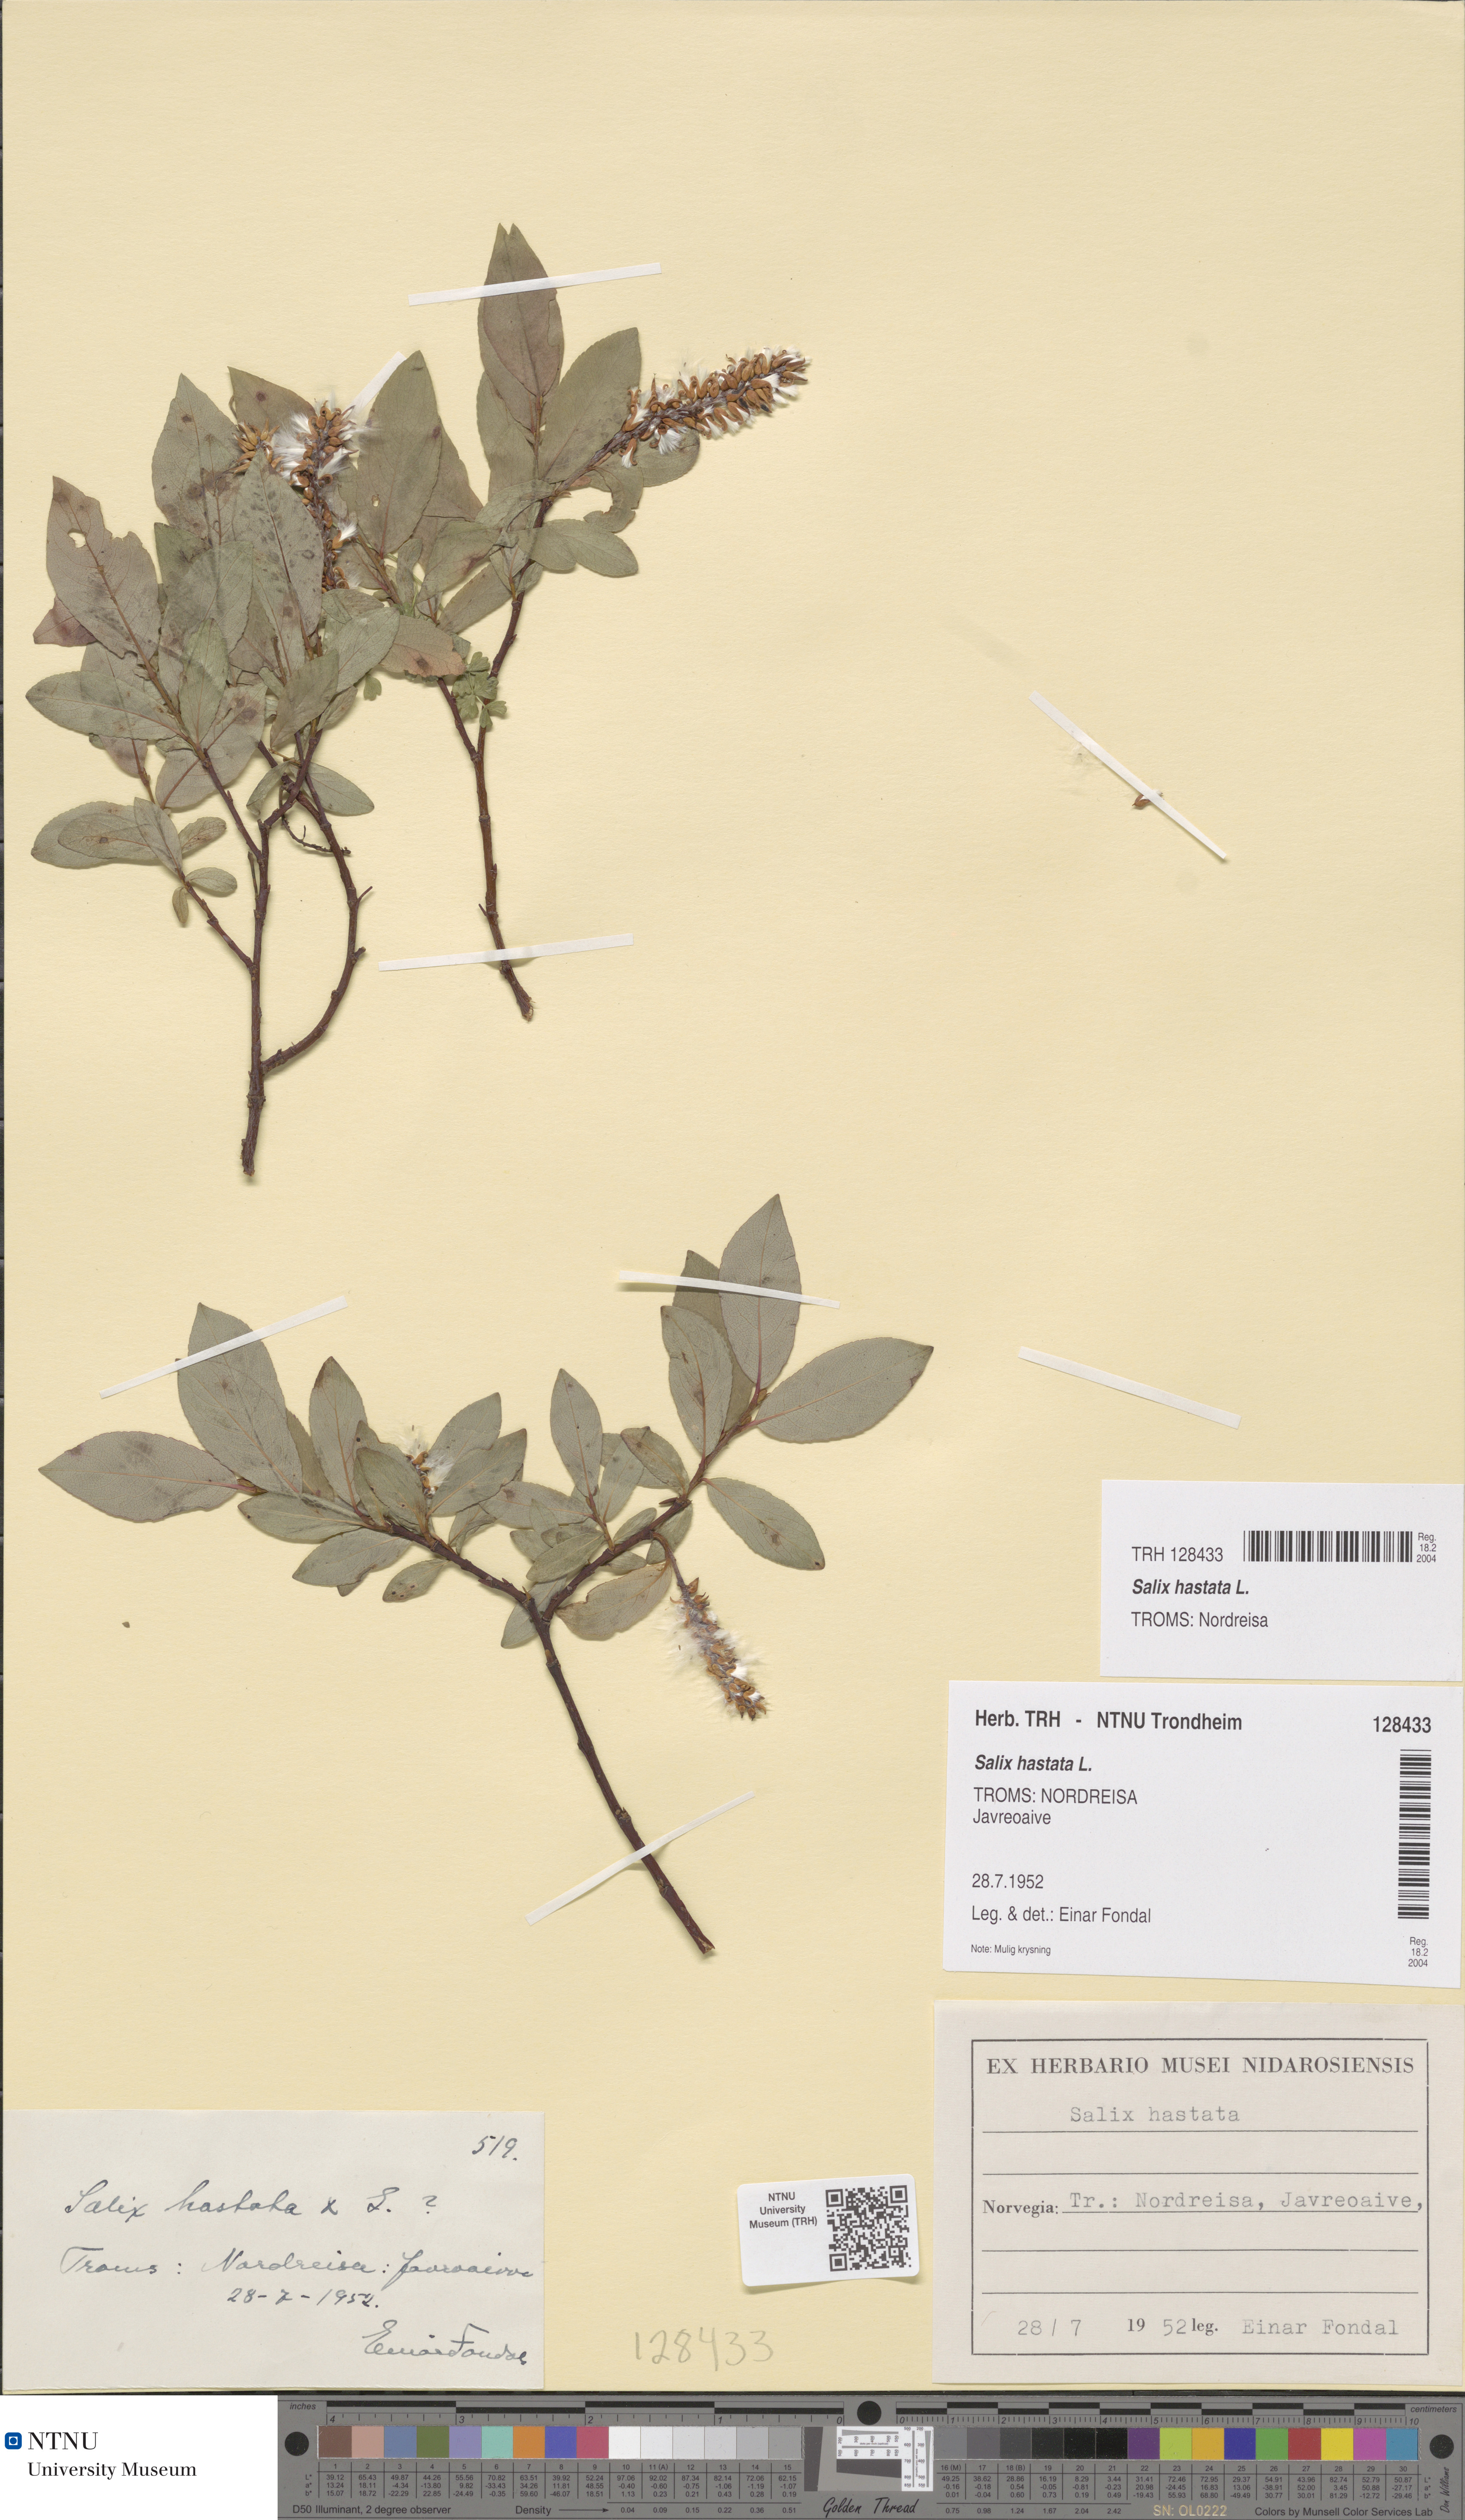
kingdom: Plantae
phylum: Tracheophyta
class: Magnoliopsida
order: Malpighiales
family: Salicaceae
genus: Salix
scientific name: Salix hastata
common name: Halberd willow
